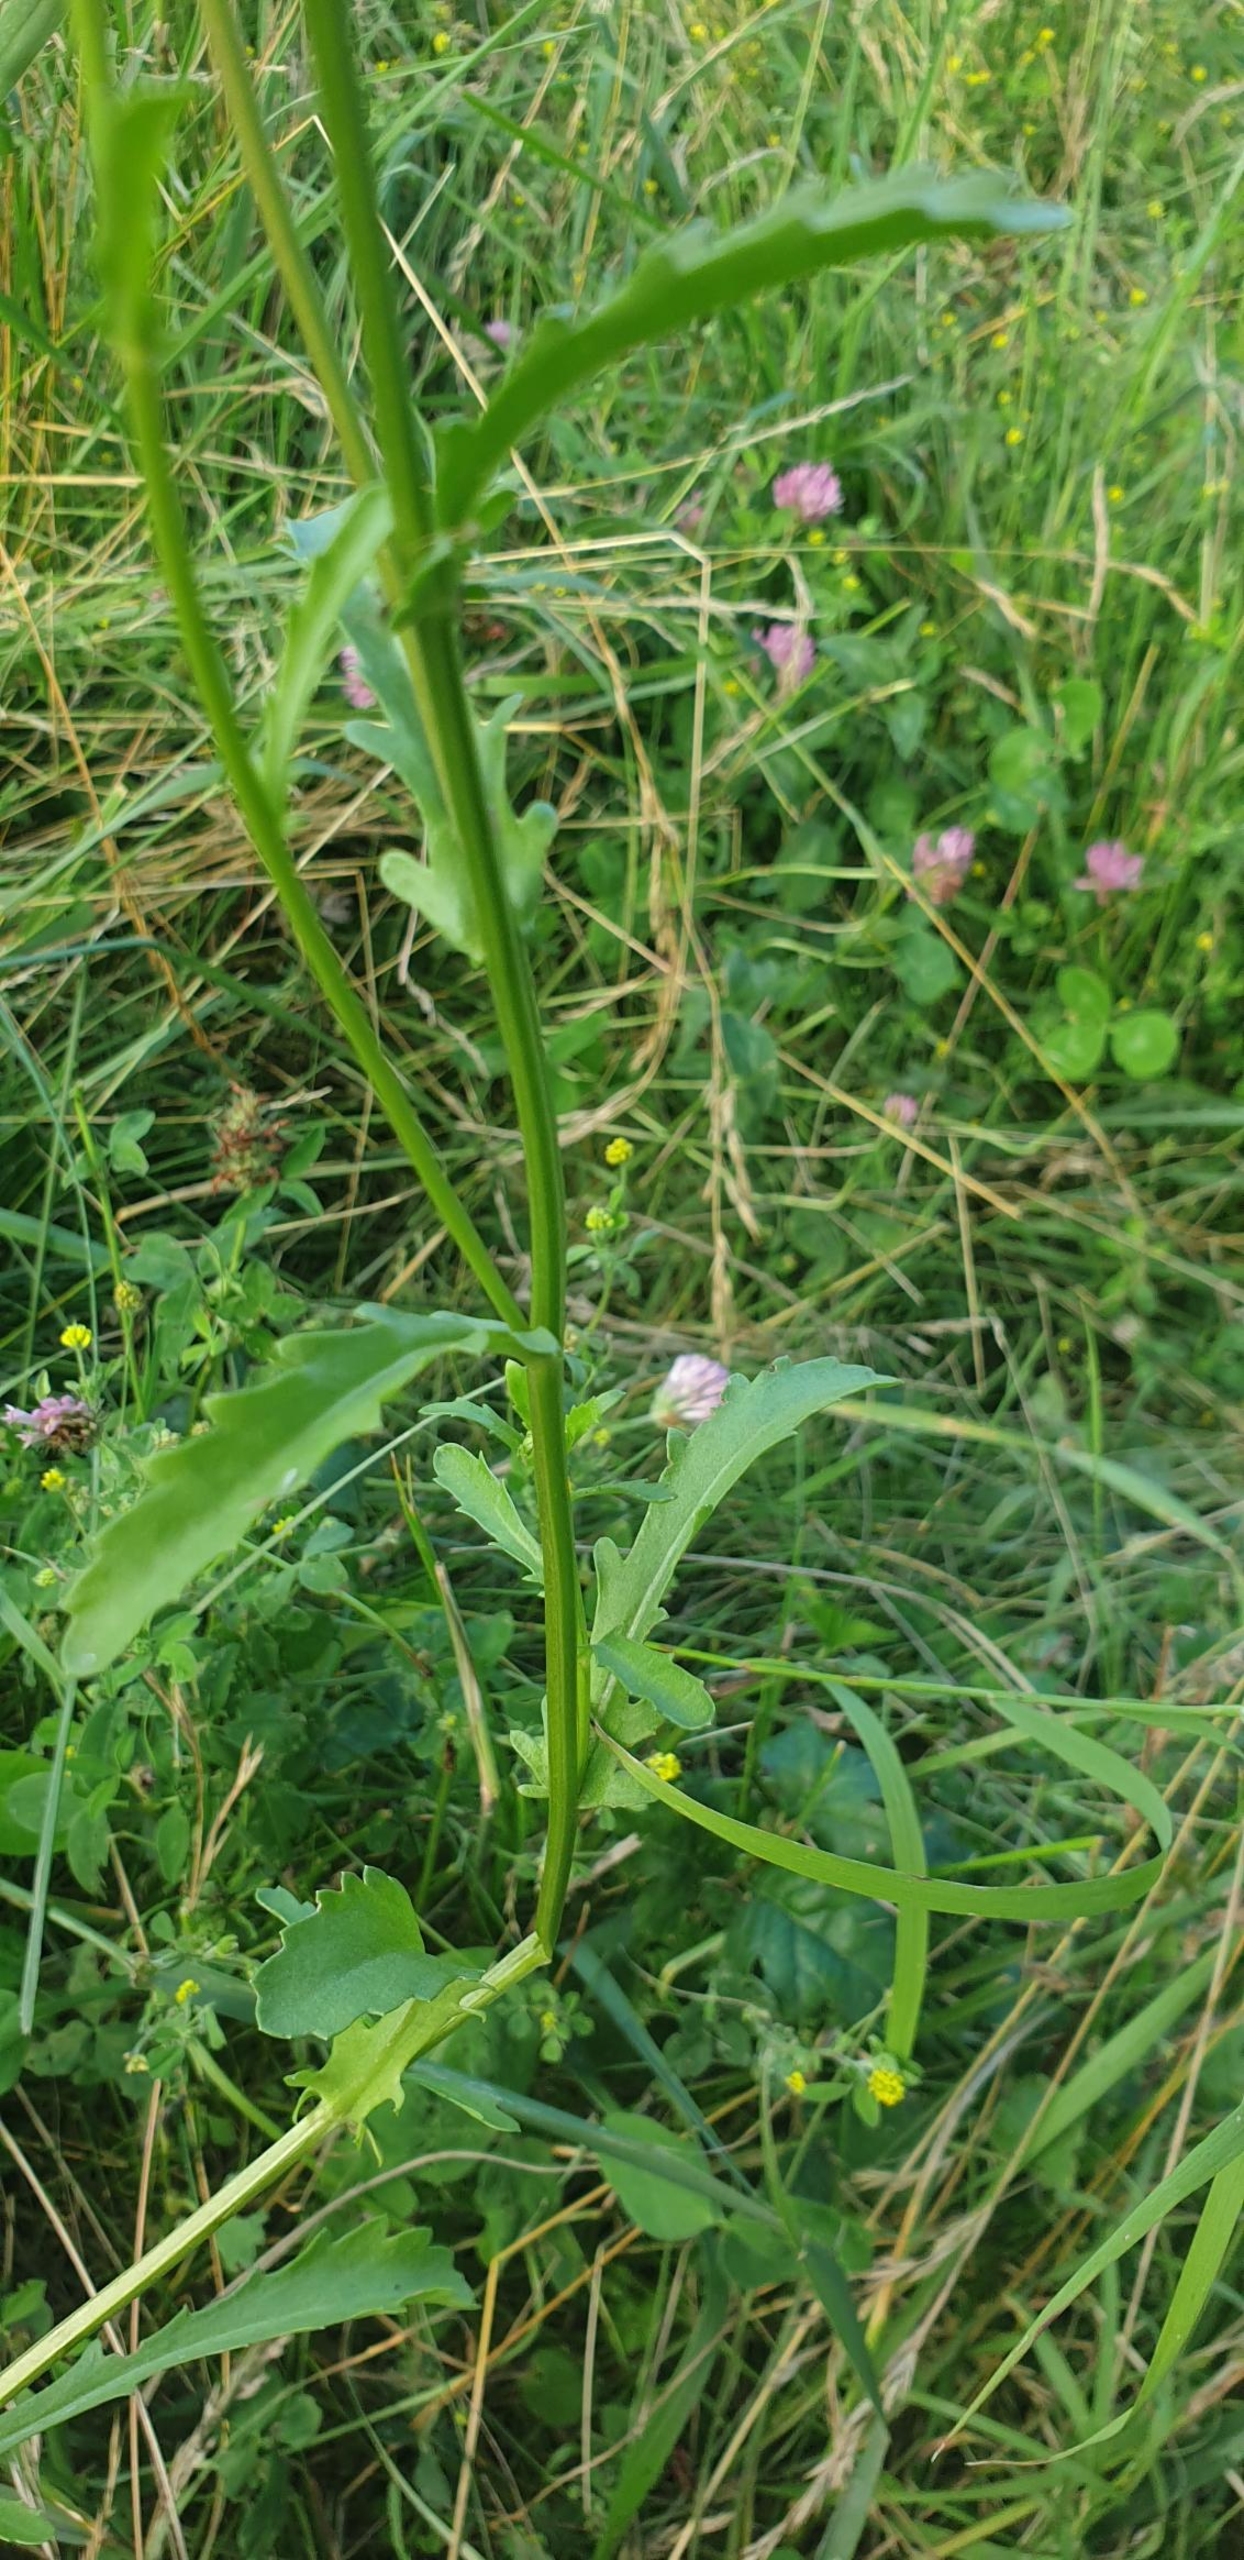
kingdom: Plantae
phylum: Tracheophyta
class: Magnoliopsida
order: Asterales
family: Asteraceae
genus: Leucanthemum
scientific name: Leucanthemum vulgare
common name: Hvid okseøje
